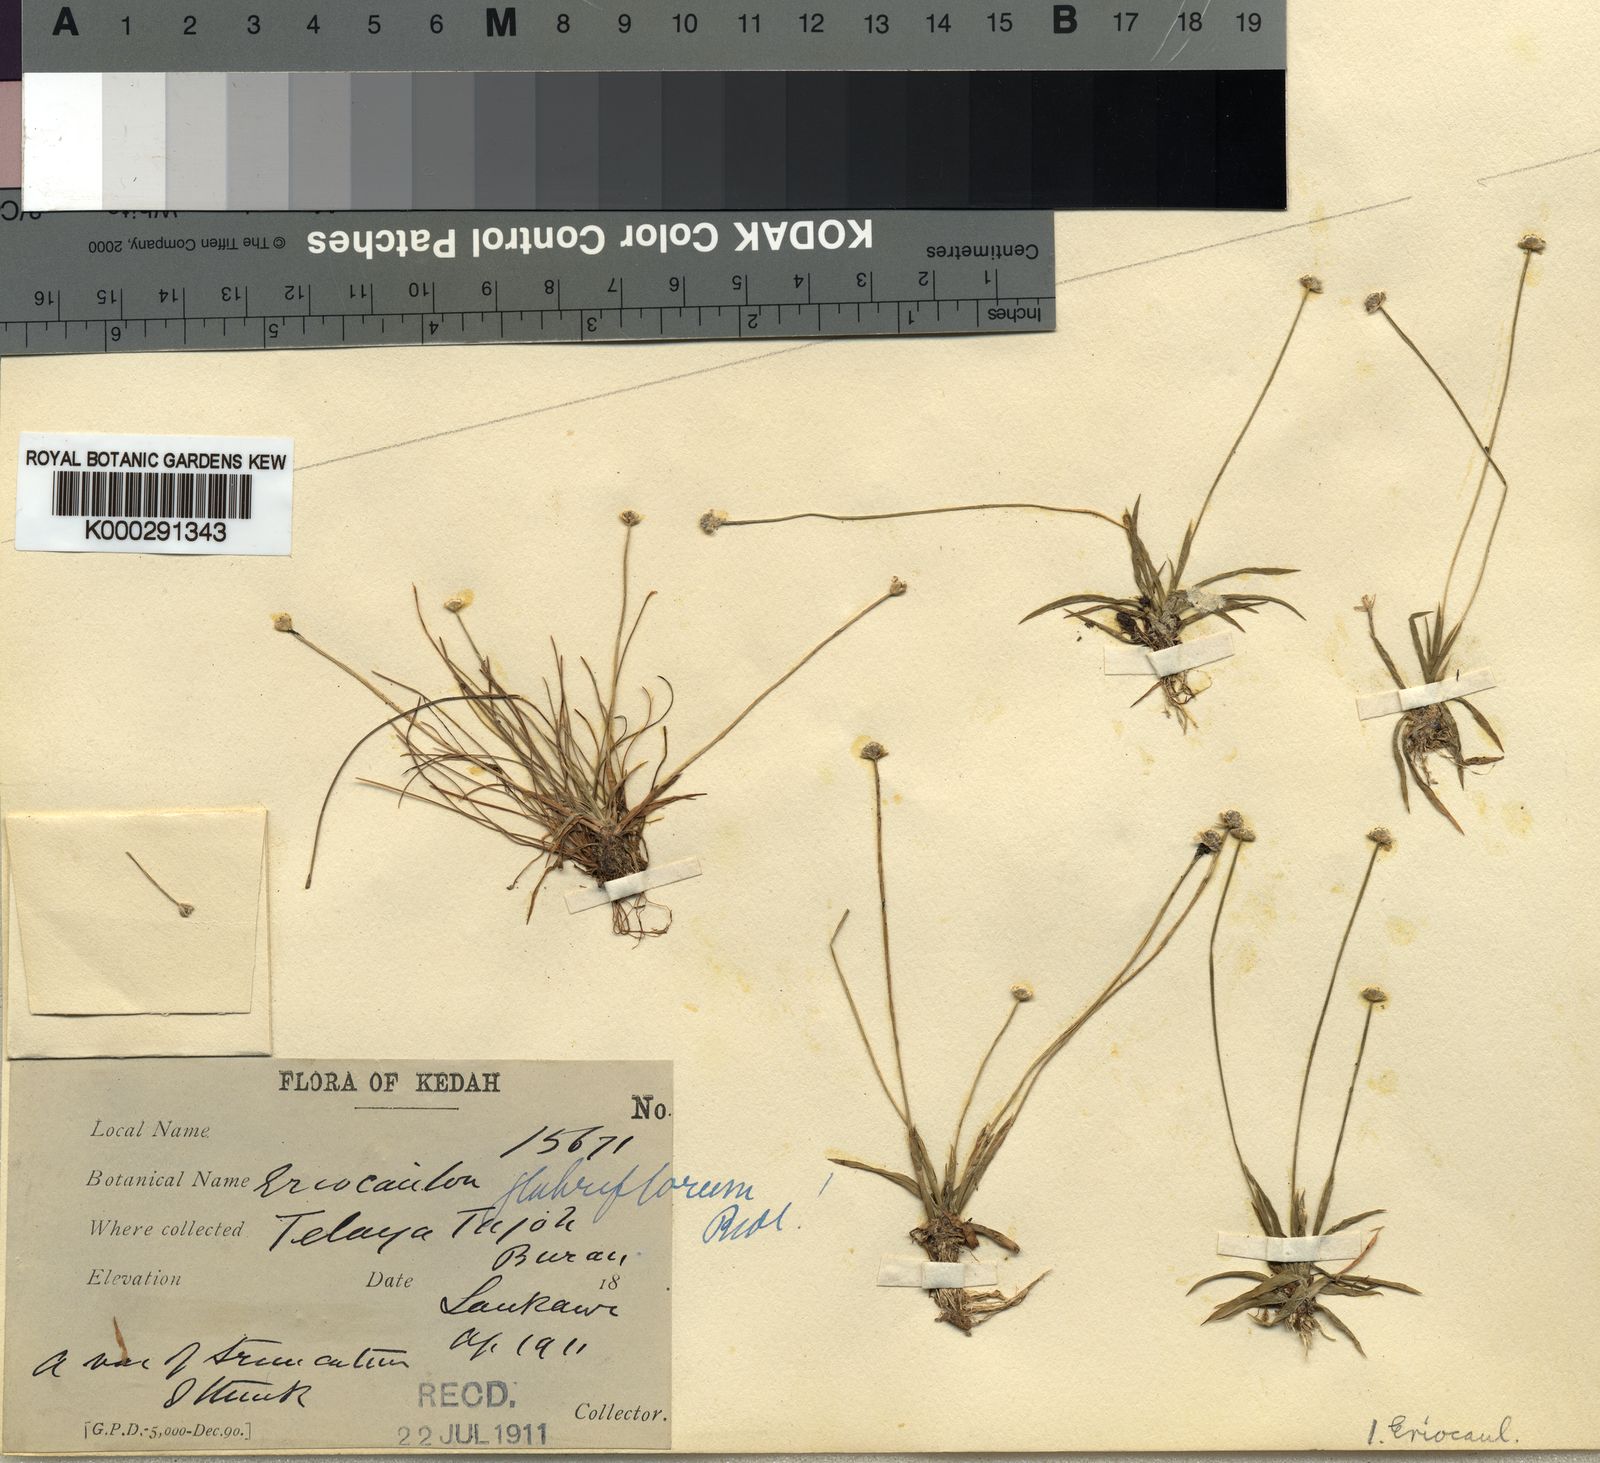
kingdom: Plantae
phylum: Tracheophyta
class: Liliopsida
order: Poales
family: Eriocaulaceae
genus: Eriocaulon
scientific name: Eriocaulon truncatum
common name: Short pipe-wort
